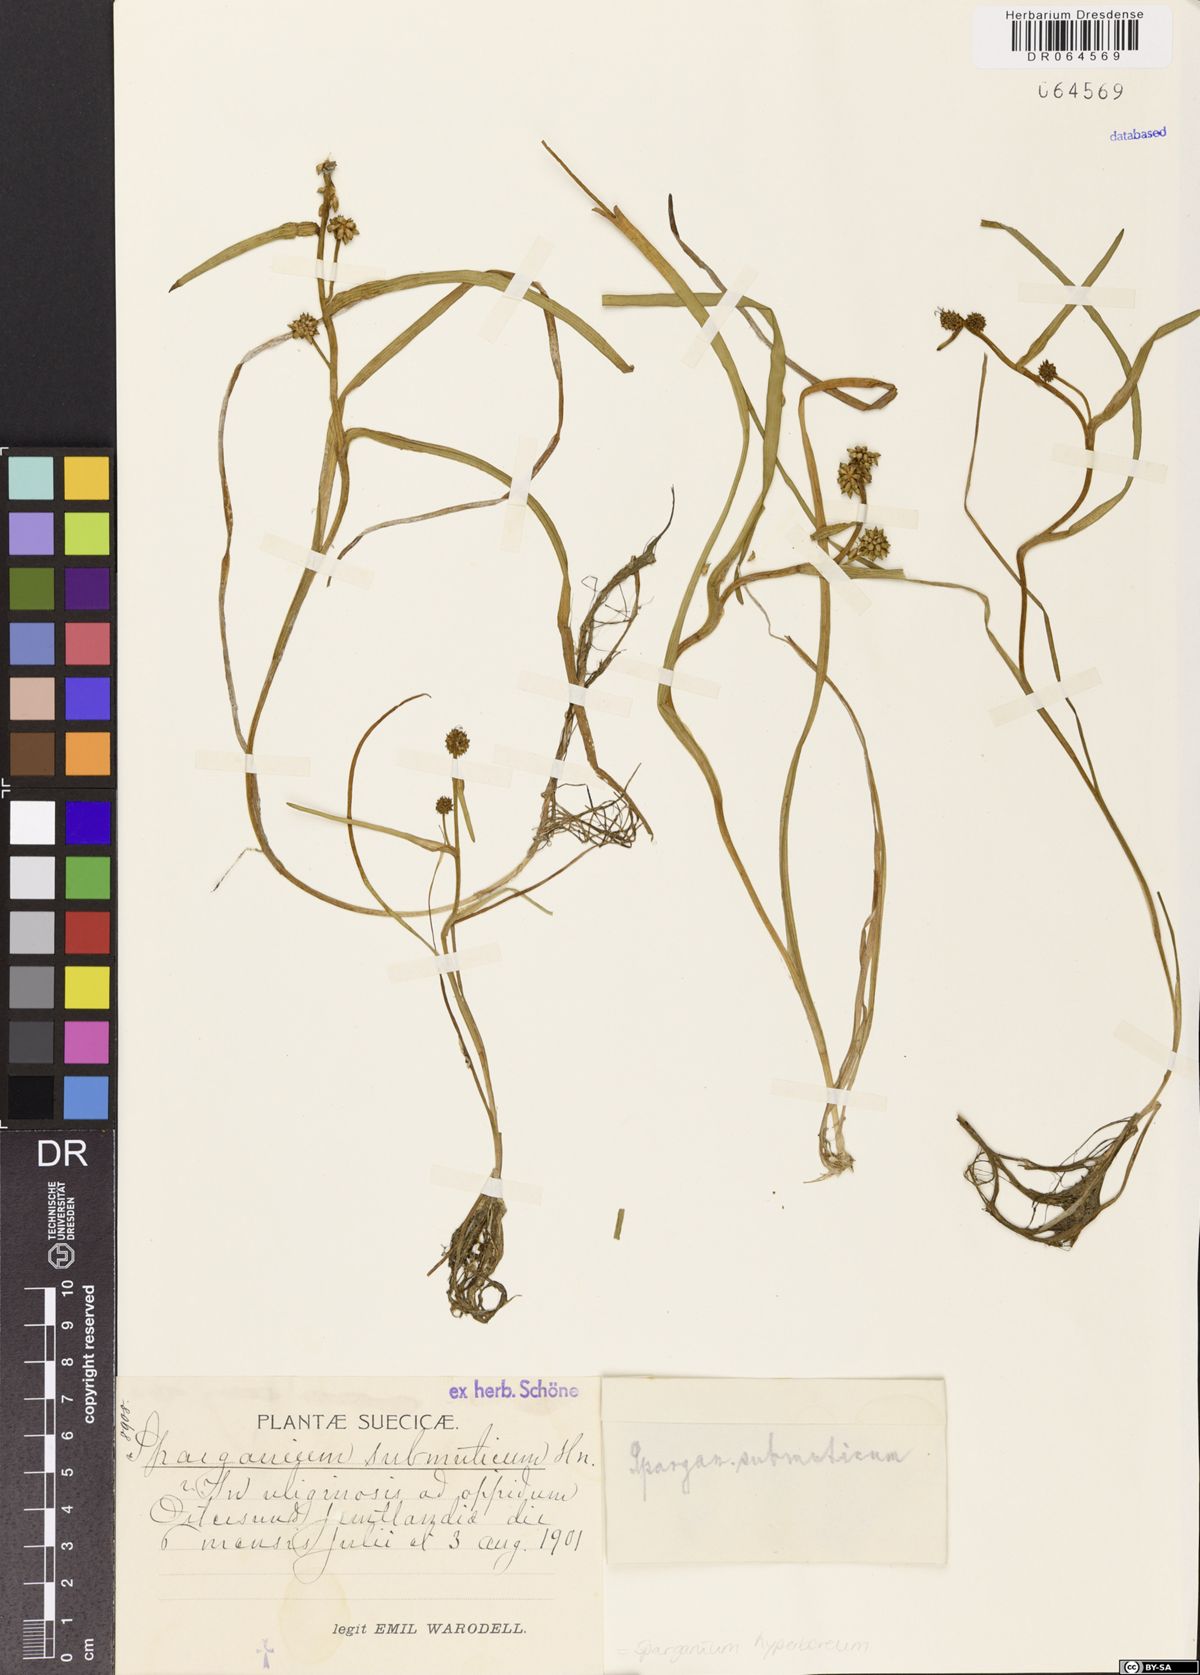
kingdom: Plantae
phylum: Tracheophyta
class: Liliopsida
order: Poales
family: Typhaceae
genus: Sparganium
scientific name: Sparganium hyperboreum
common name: Arctic burreed
